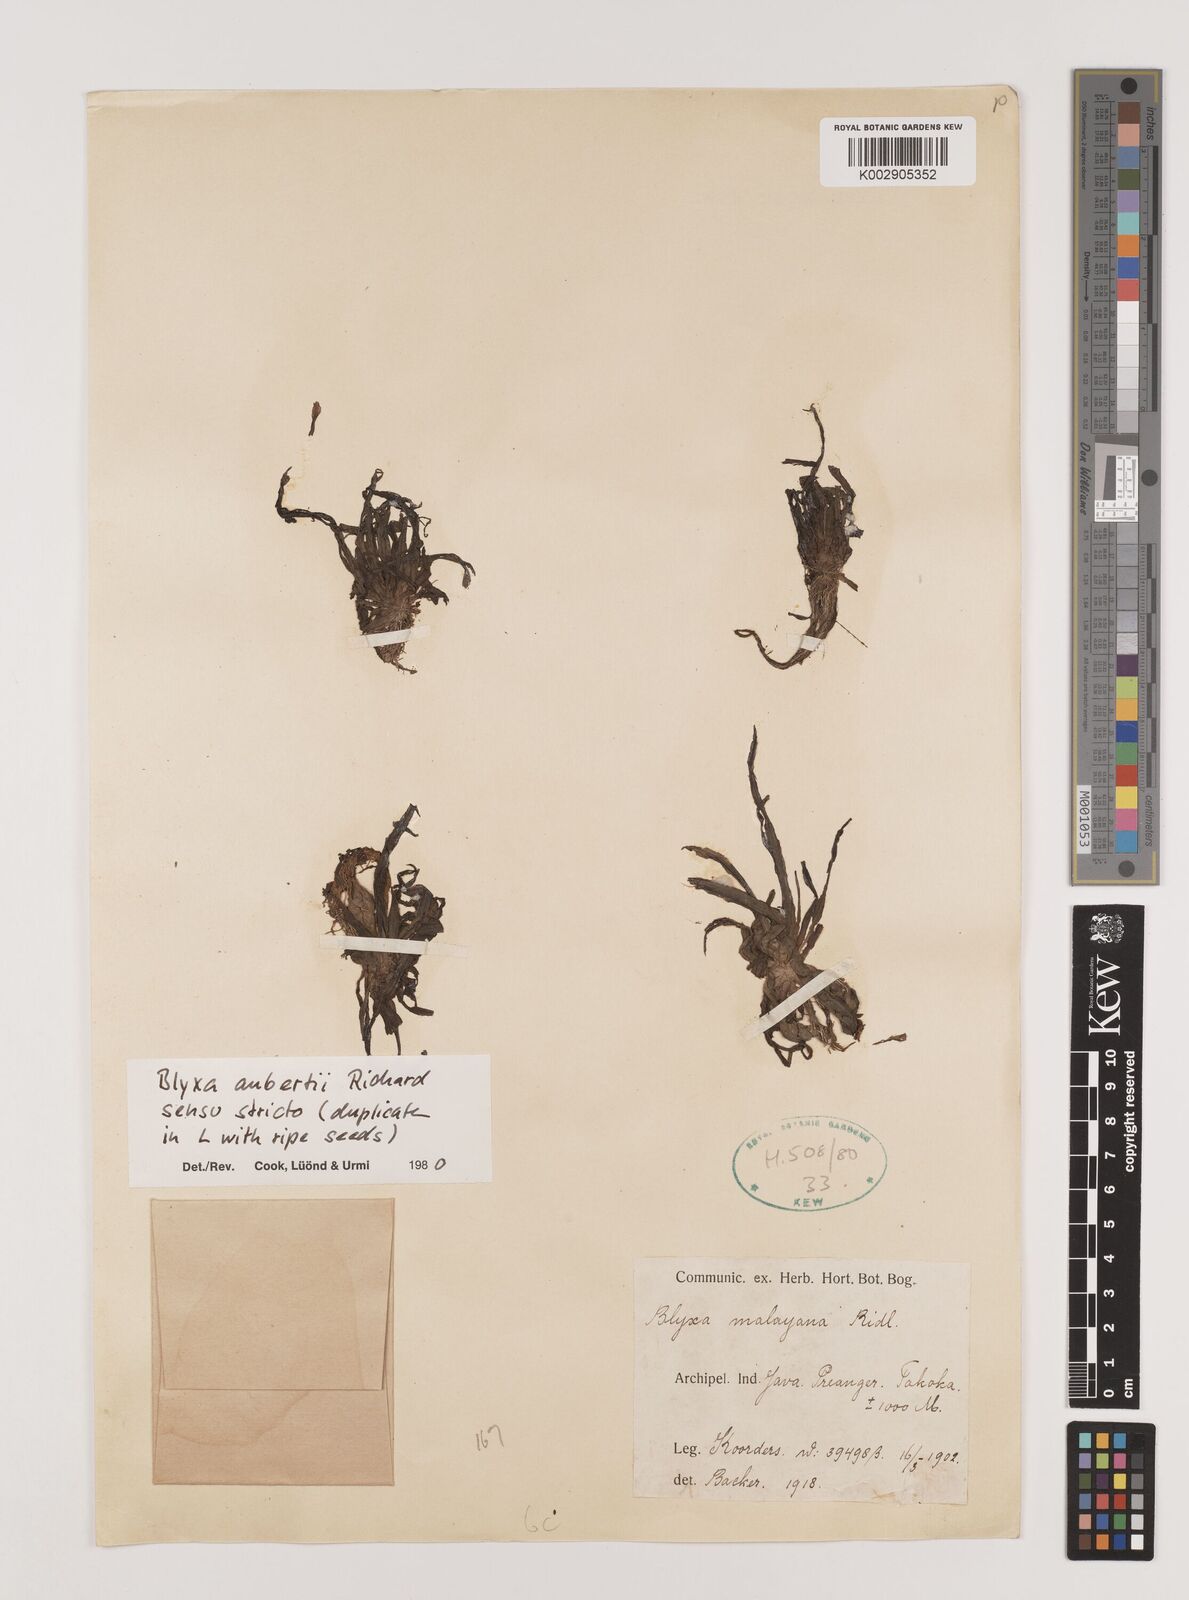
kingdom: Plantae
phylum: Tracheophyta
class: Liliopsida
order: Alismatales
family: Hydrocharitaceae
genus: Blyxa
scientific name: Blyxa aubertii
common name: Roundfruit blyxa
